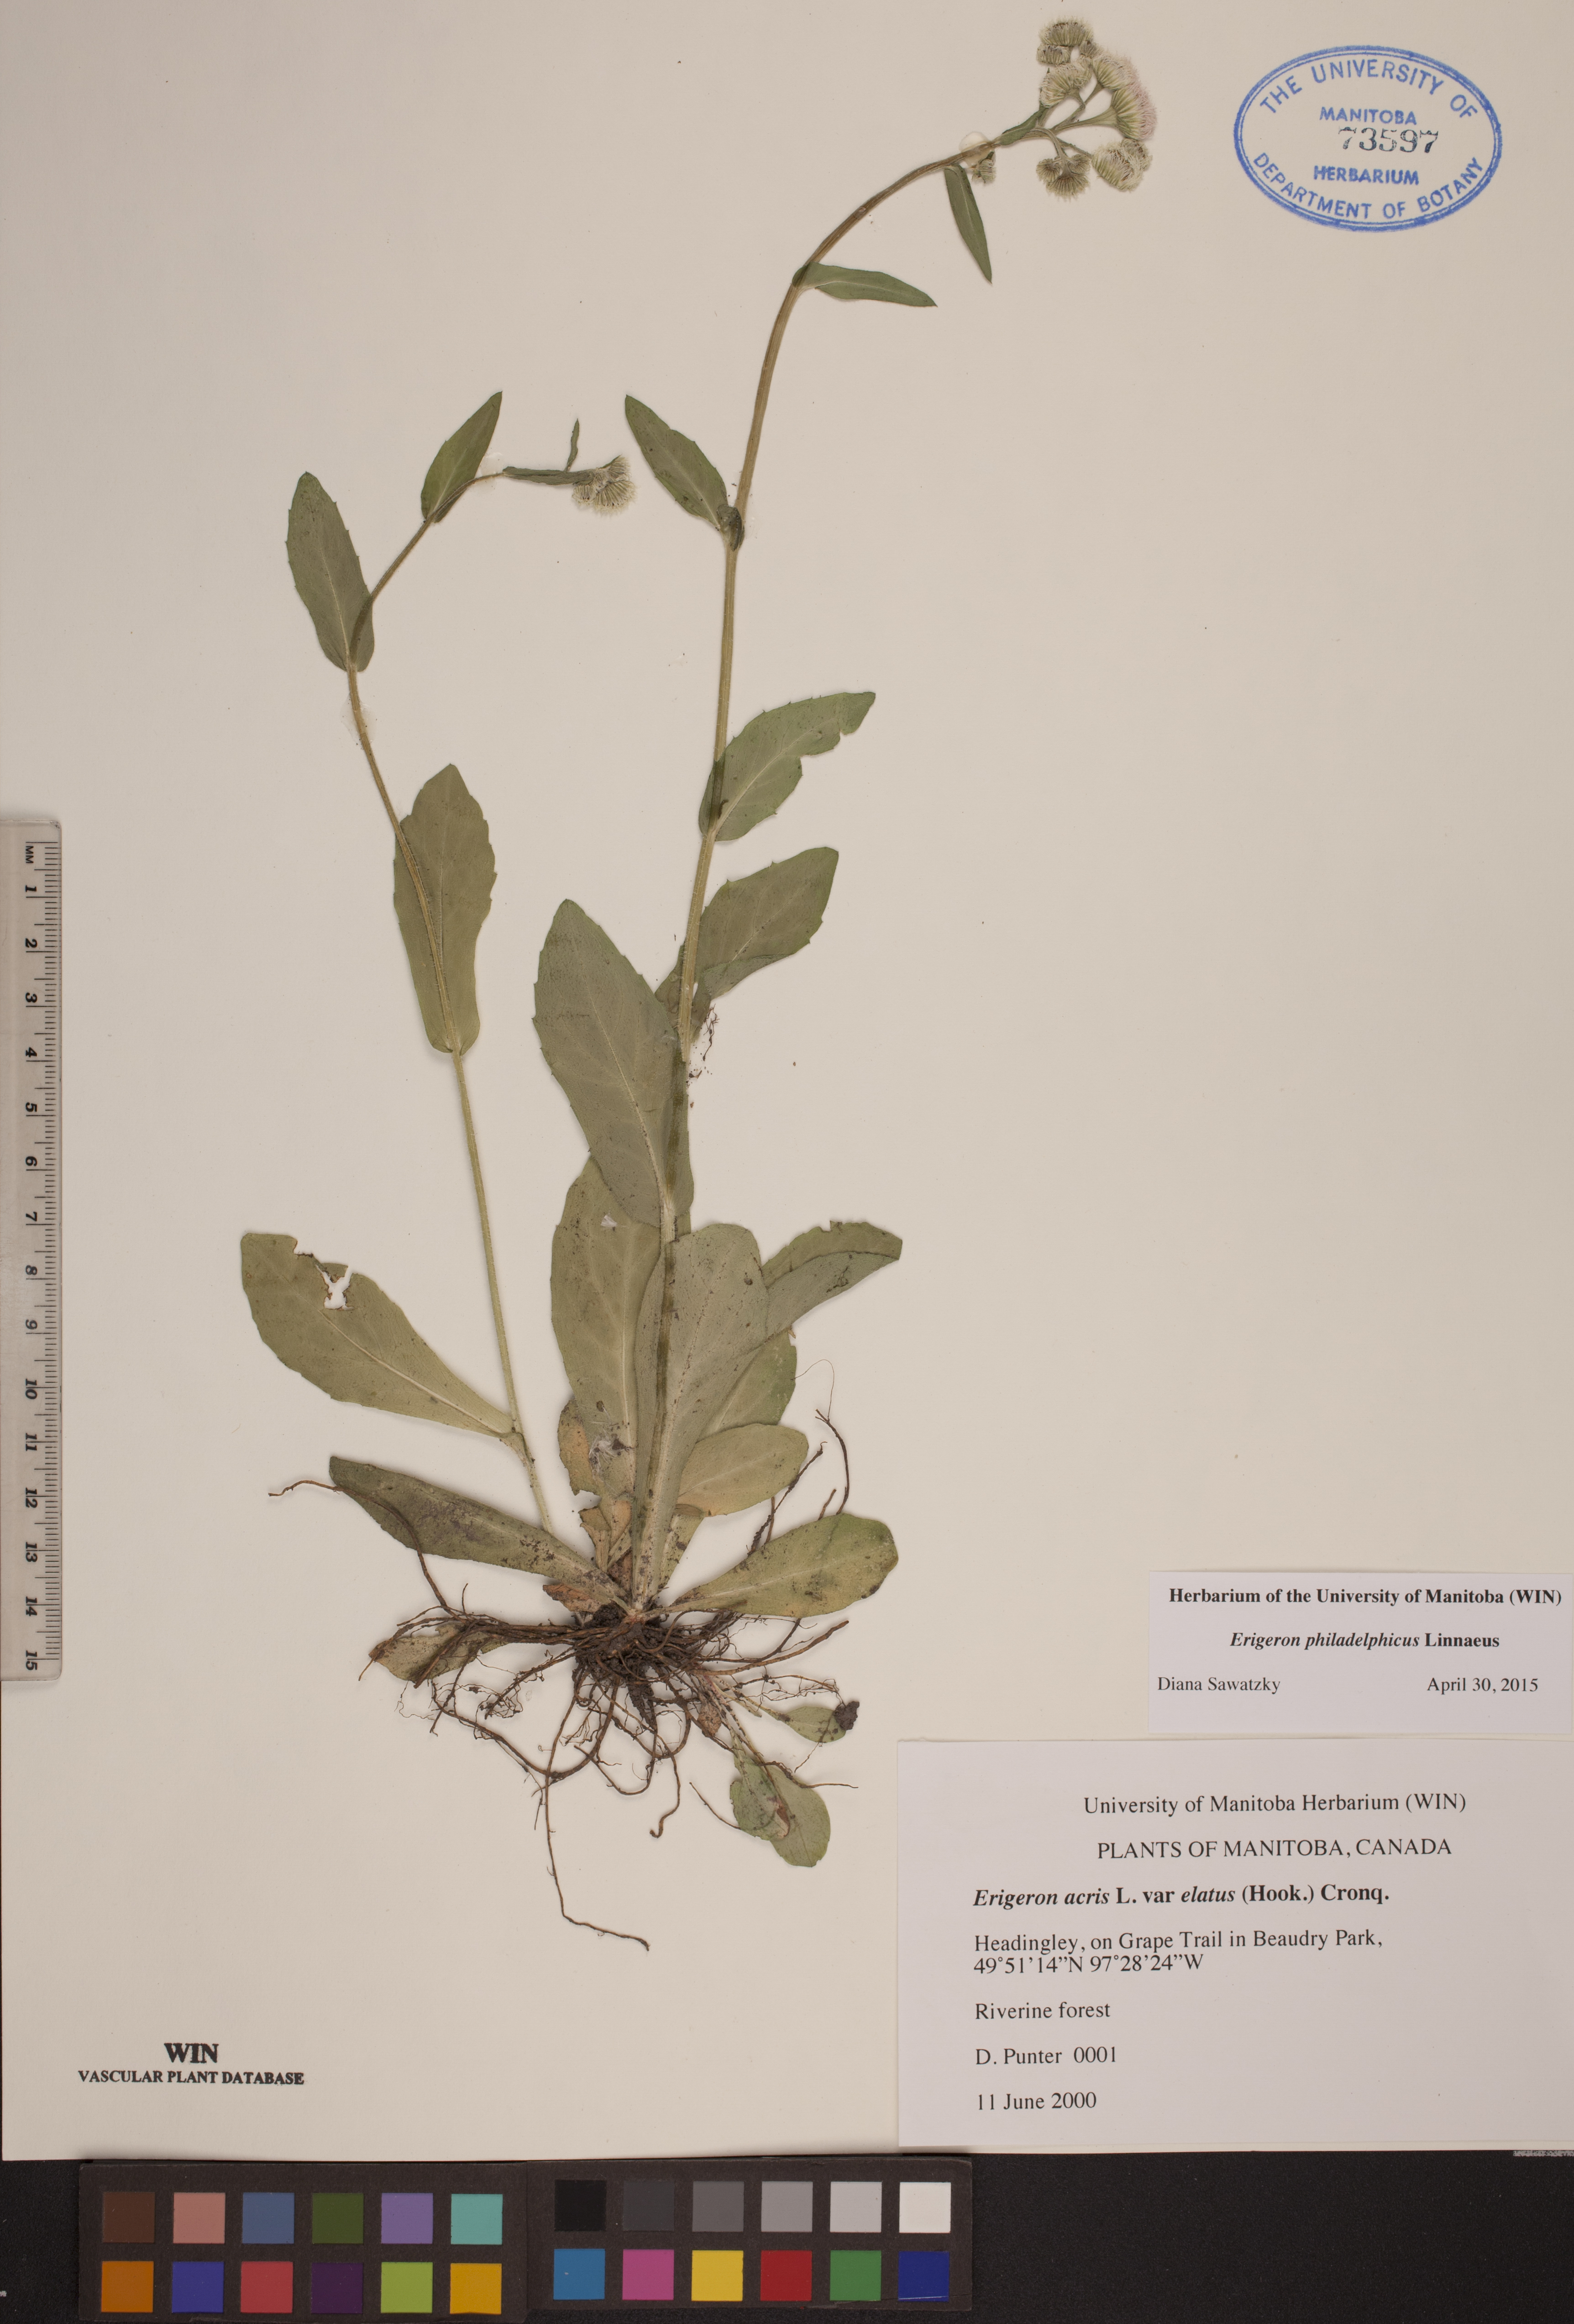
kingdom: Plantae
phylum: Tracheophyta
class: Magnoliopsida
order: Asterales
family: Asteraceae
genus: Erigeron
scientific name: Erigeron philadelphicus
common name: Robin's-plantain
